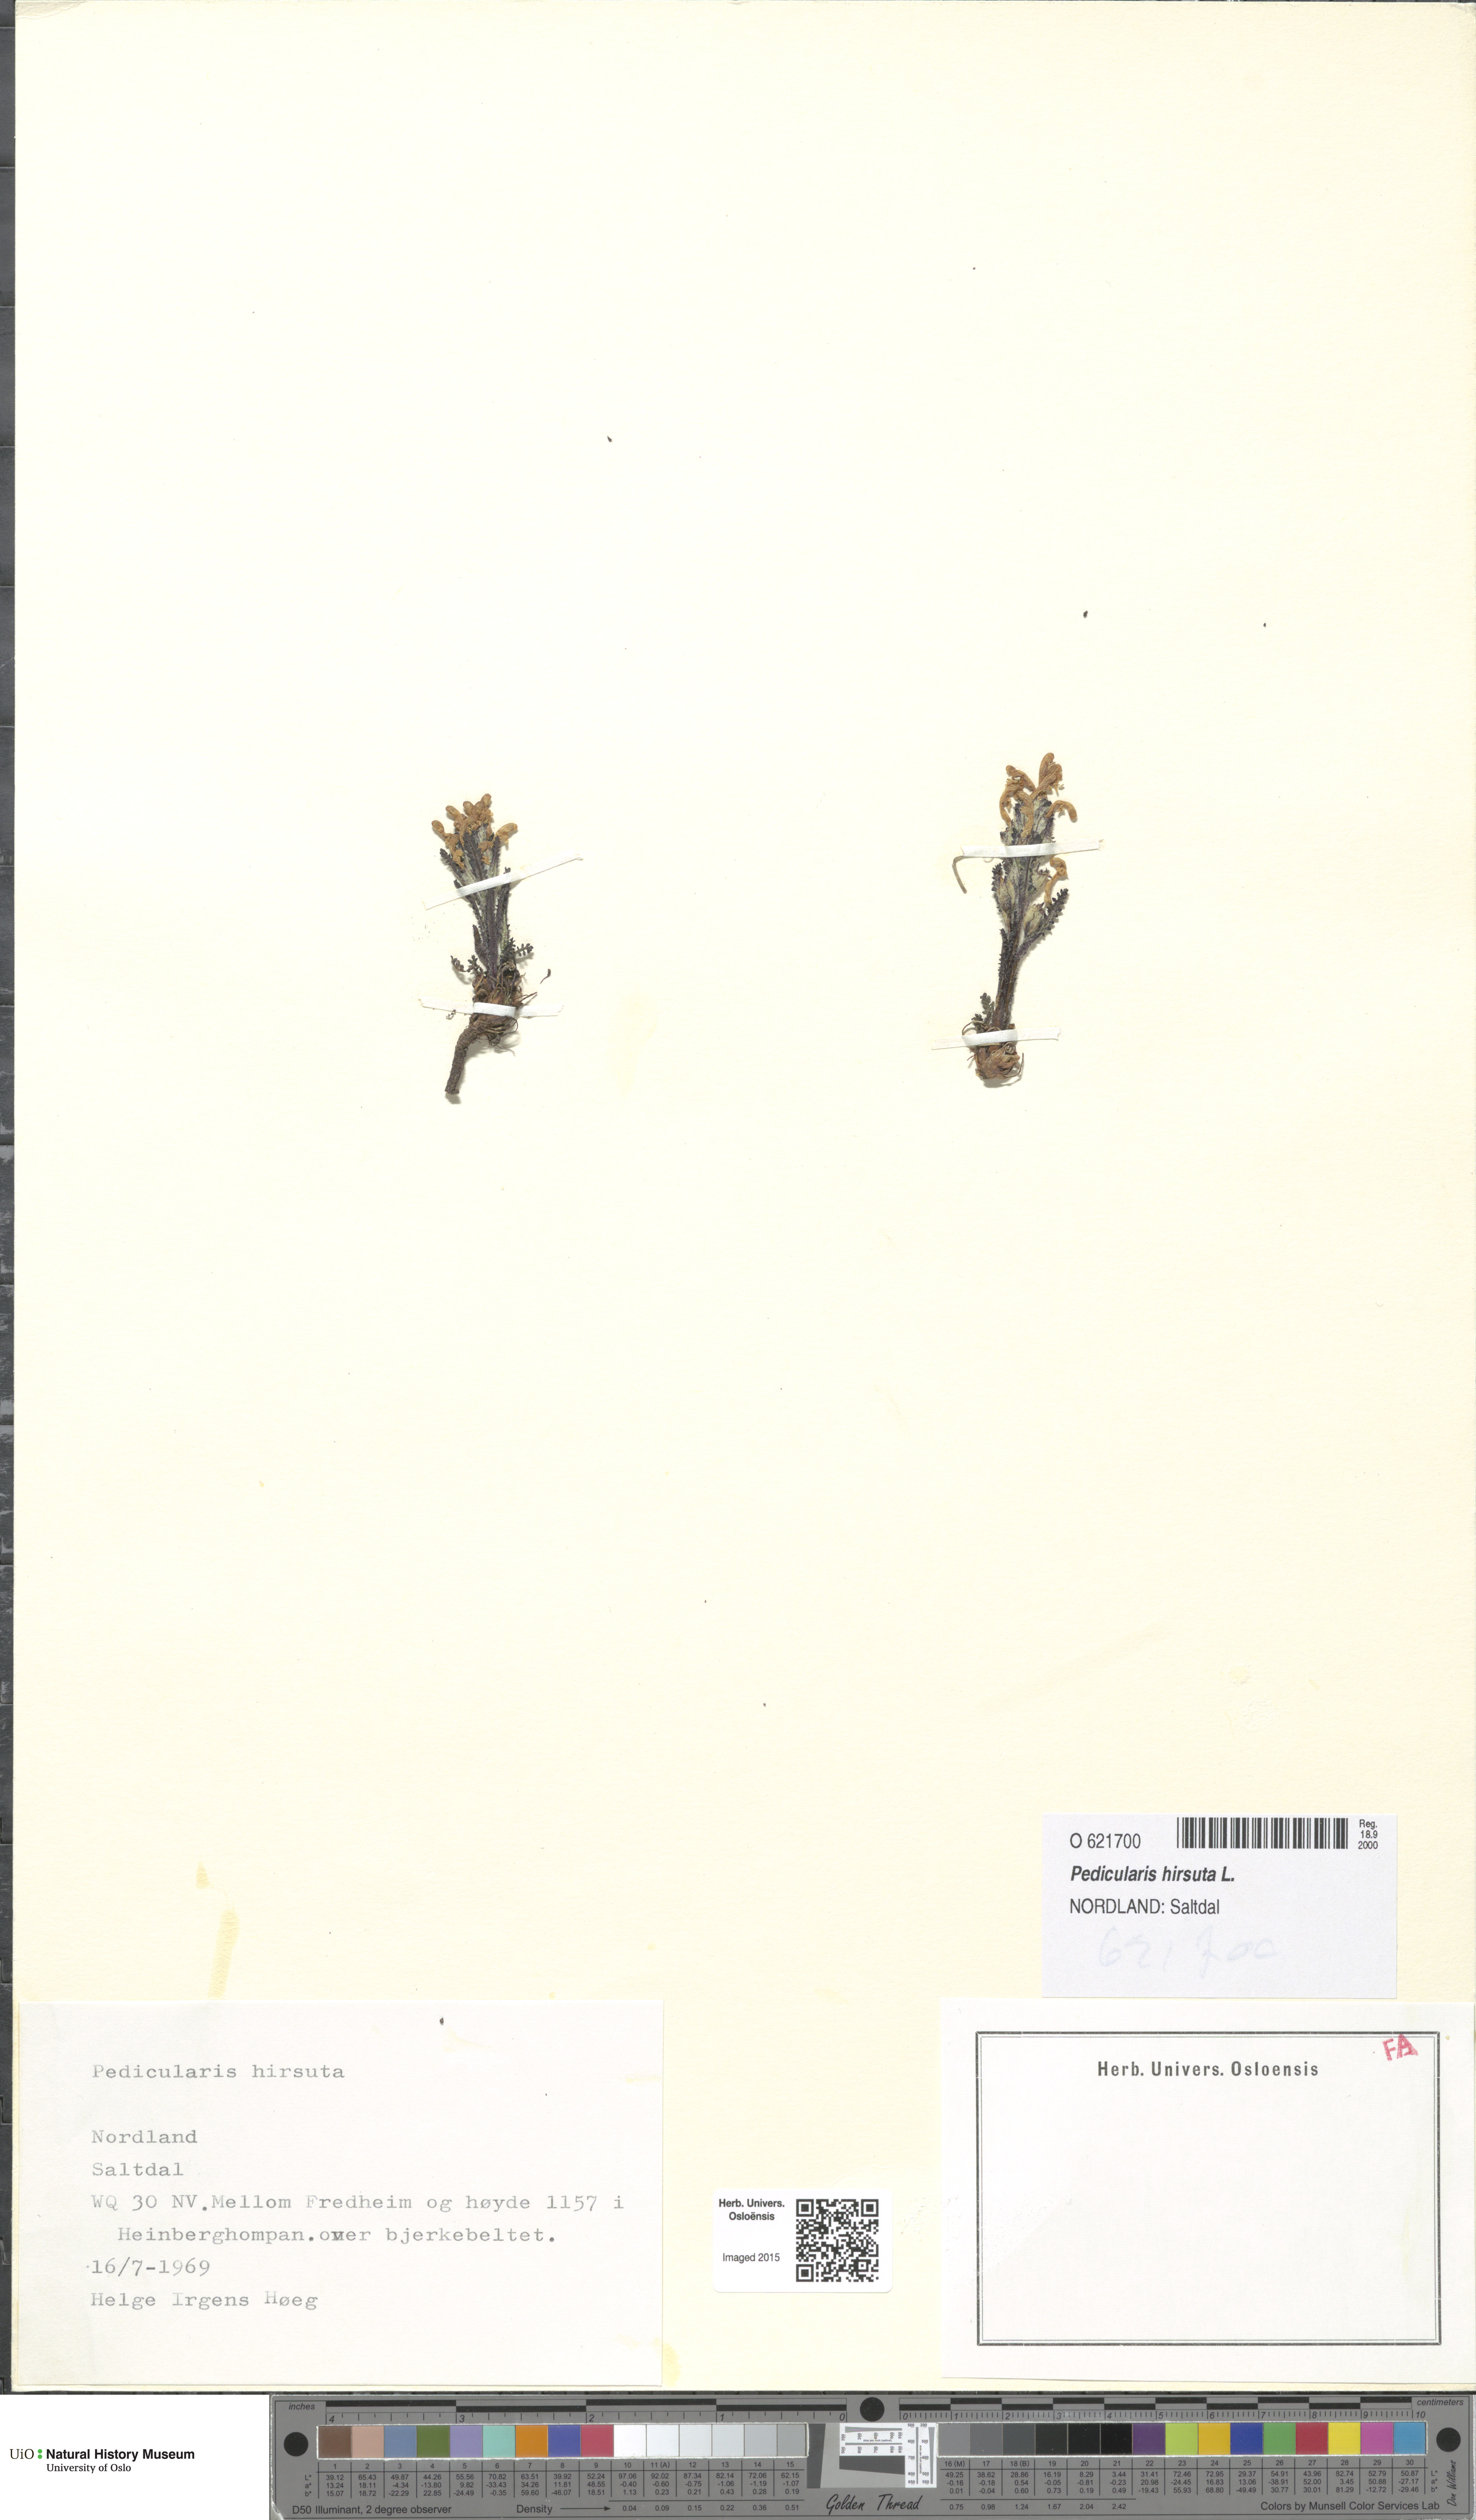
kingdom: Plantae
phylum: Tracheophyta
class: Magnoliopsida
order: Lamiales
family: Orobanchaceae
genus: Pedicularis
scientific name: Pedicularis hirsuta
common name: Hairy lousewort
